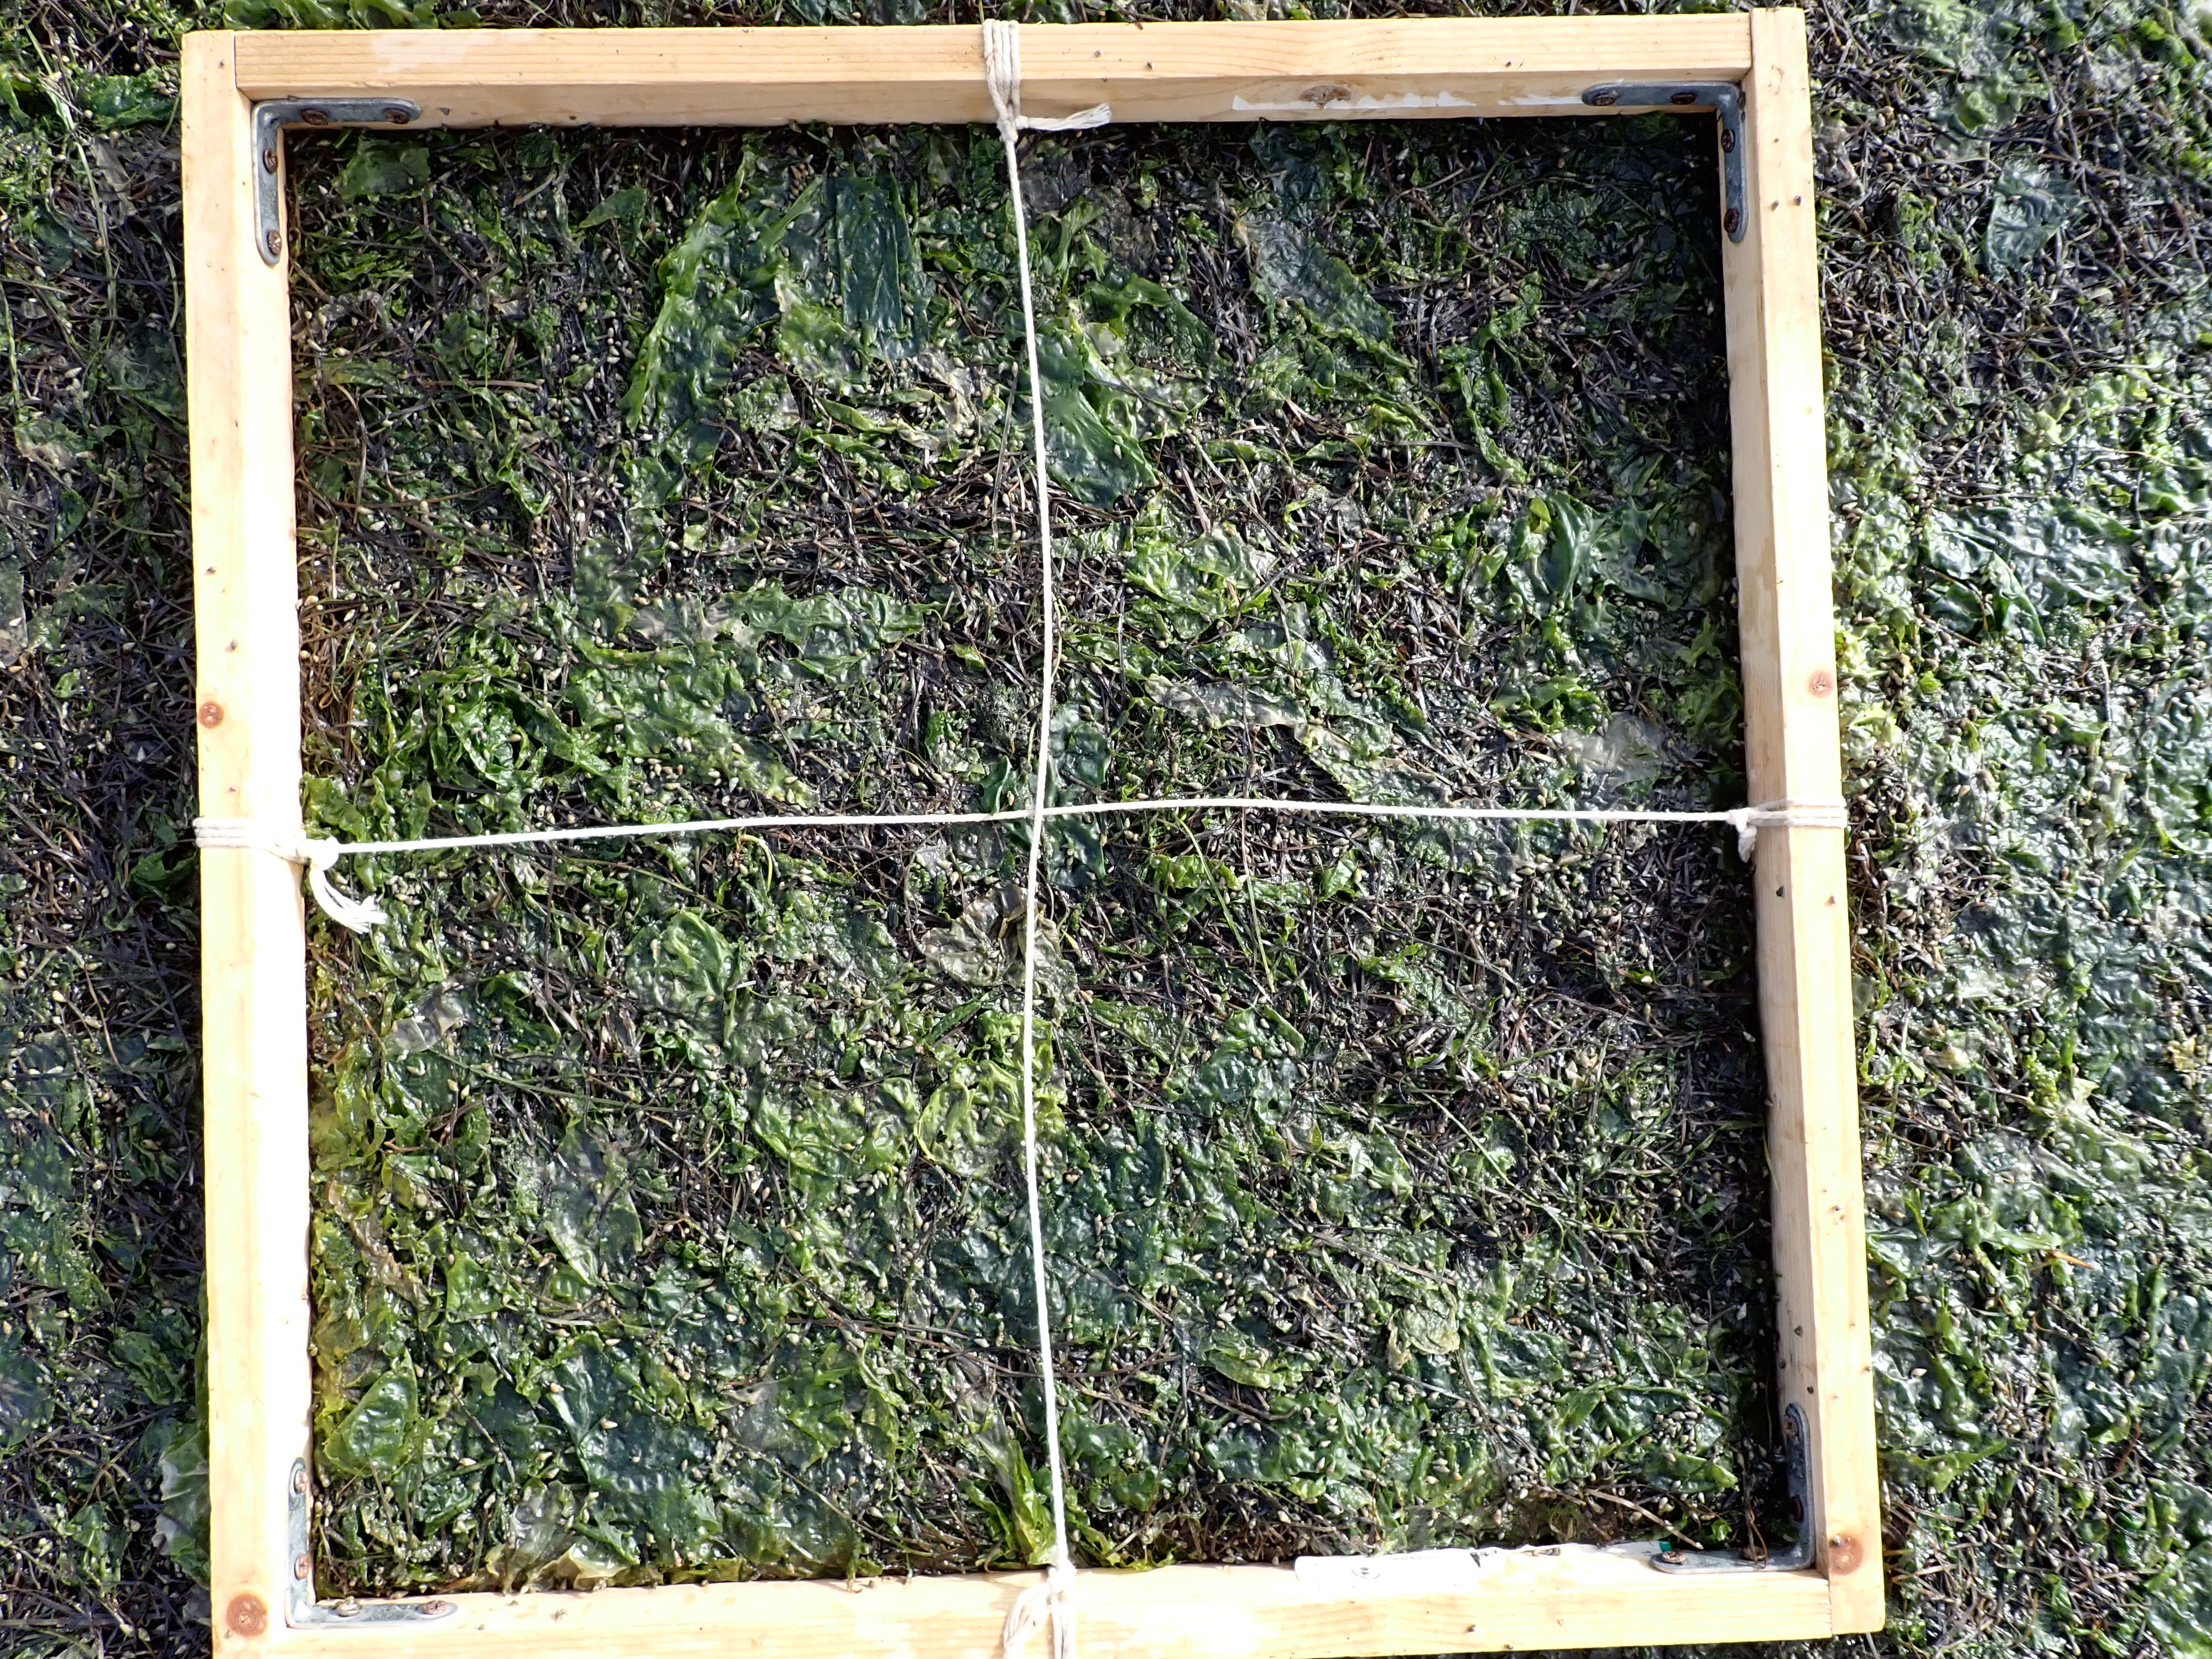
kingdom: Plantae
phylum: Chlorophyta
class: Ulvophyceae
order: Ulvales
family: Ulvaceae
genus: Ulva
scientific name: Ulva
